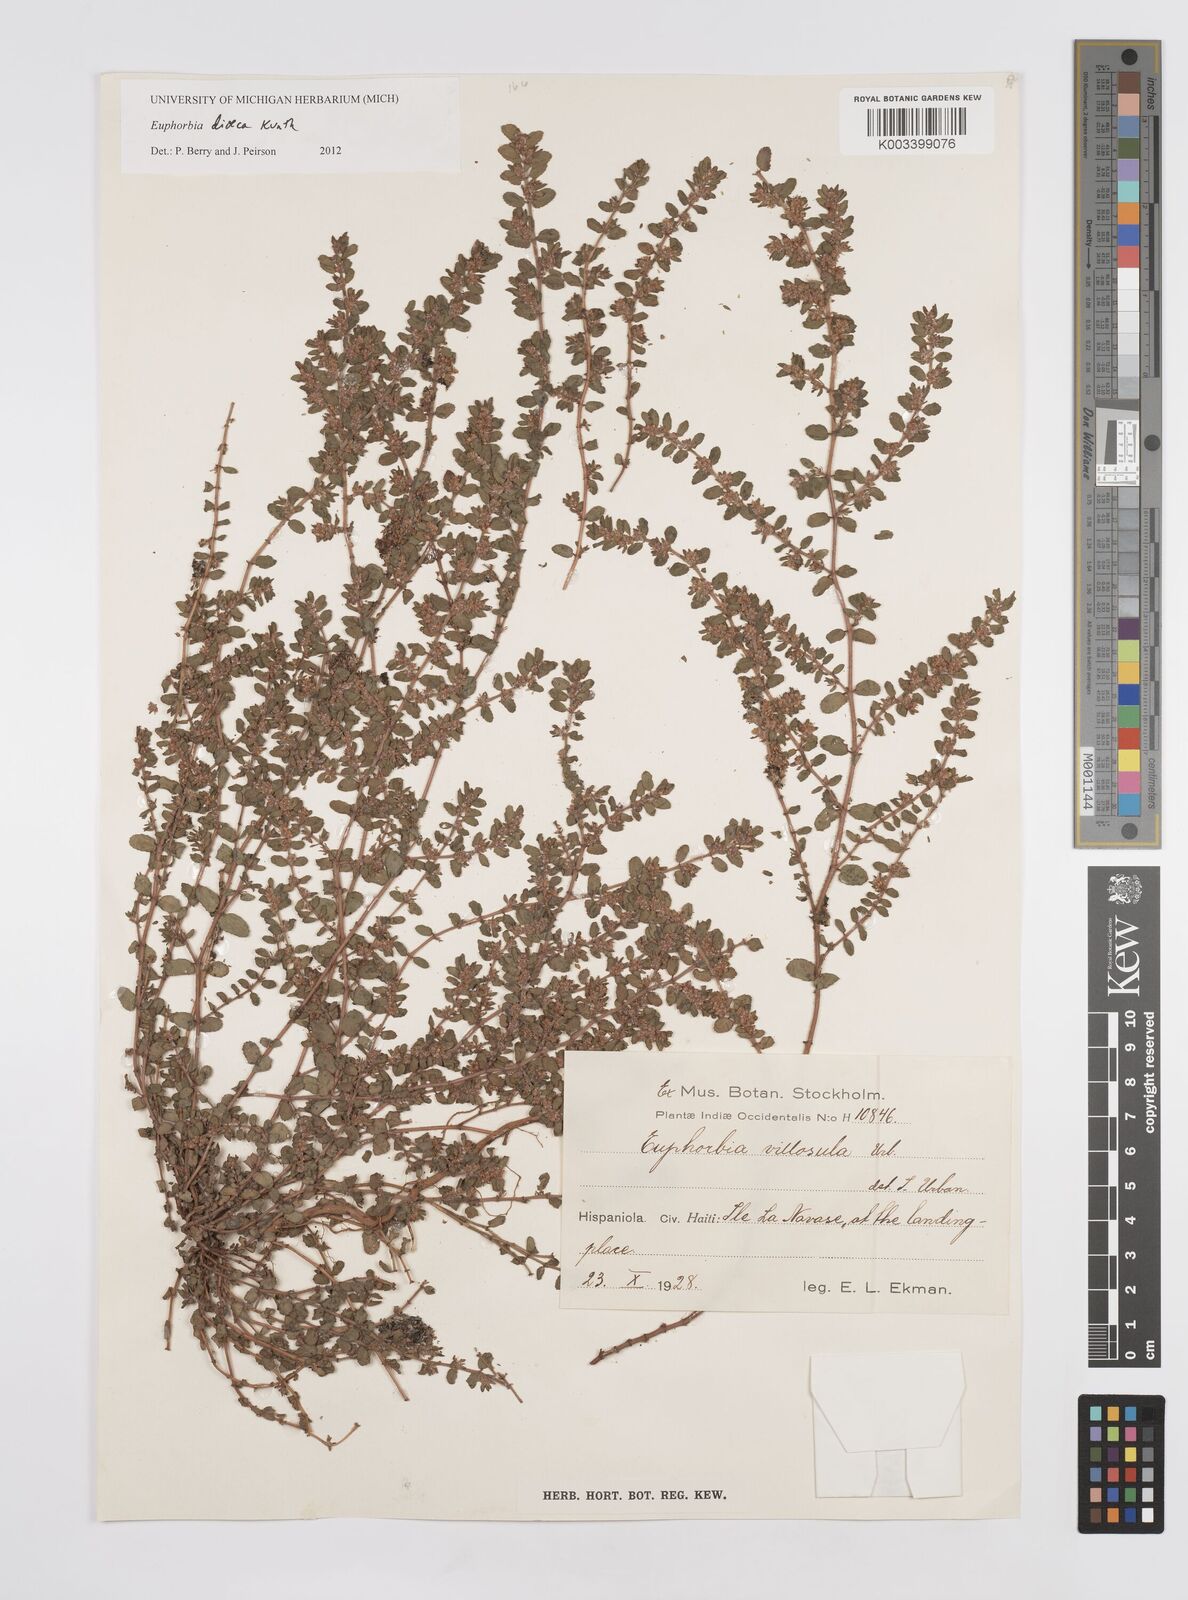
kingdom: Plantae
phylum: Tracheophyta
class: Magnoliopsida
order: Malpighiales
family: Euphorbiaceae
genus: Euphorbia
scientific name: Euphorbia dioeca
